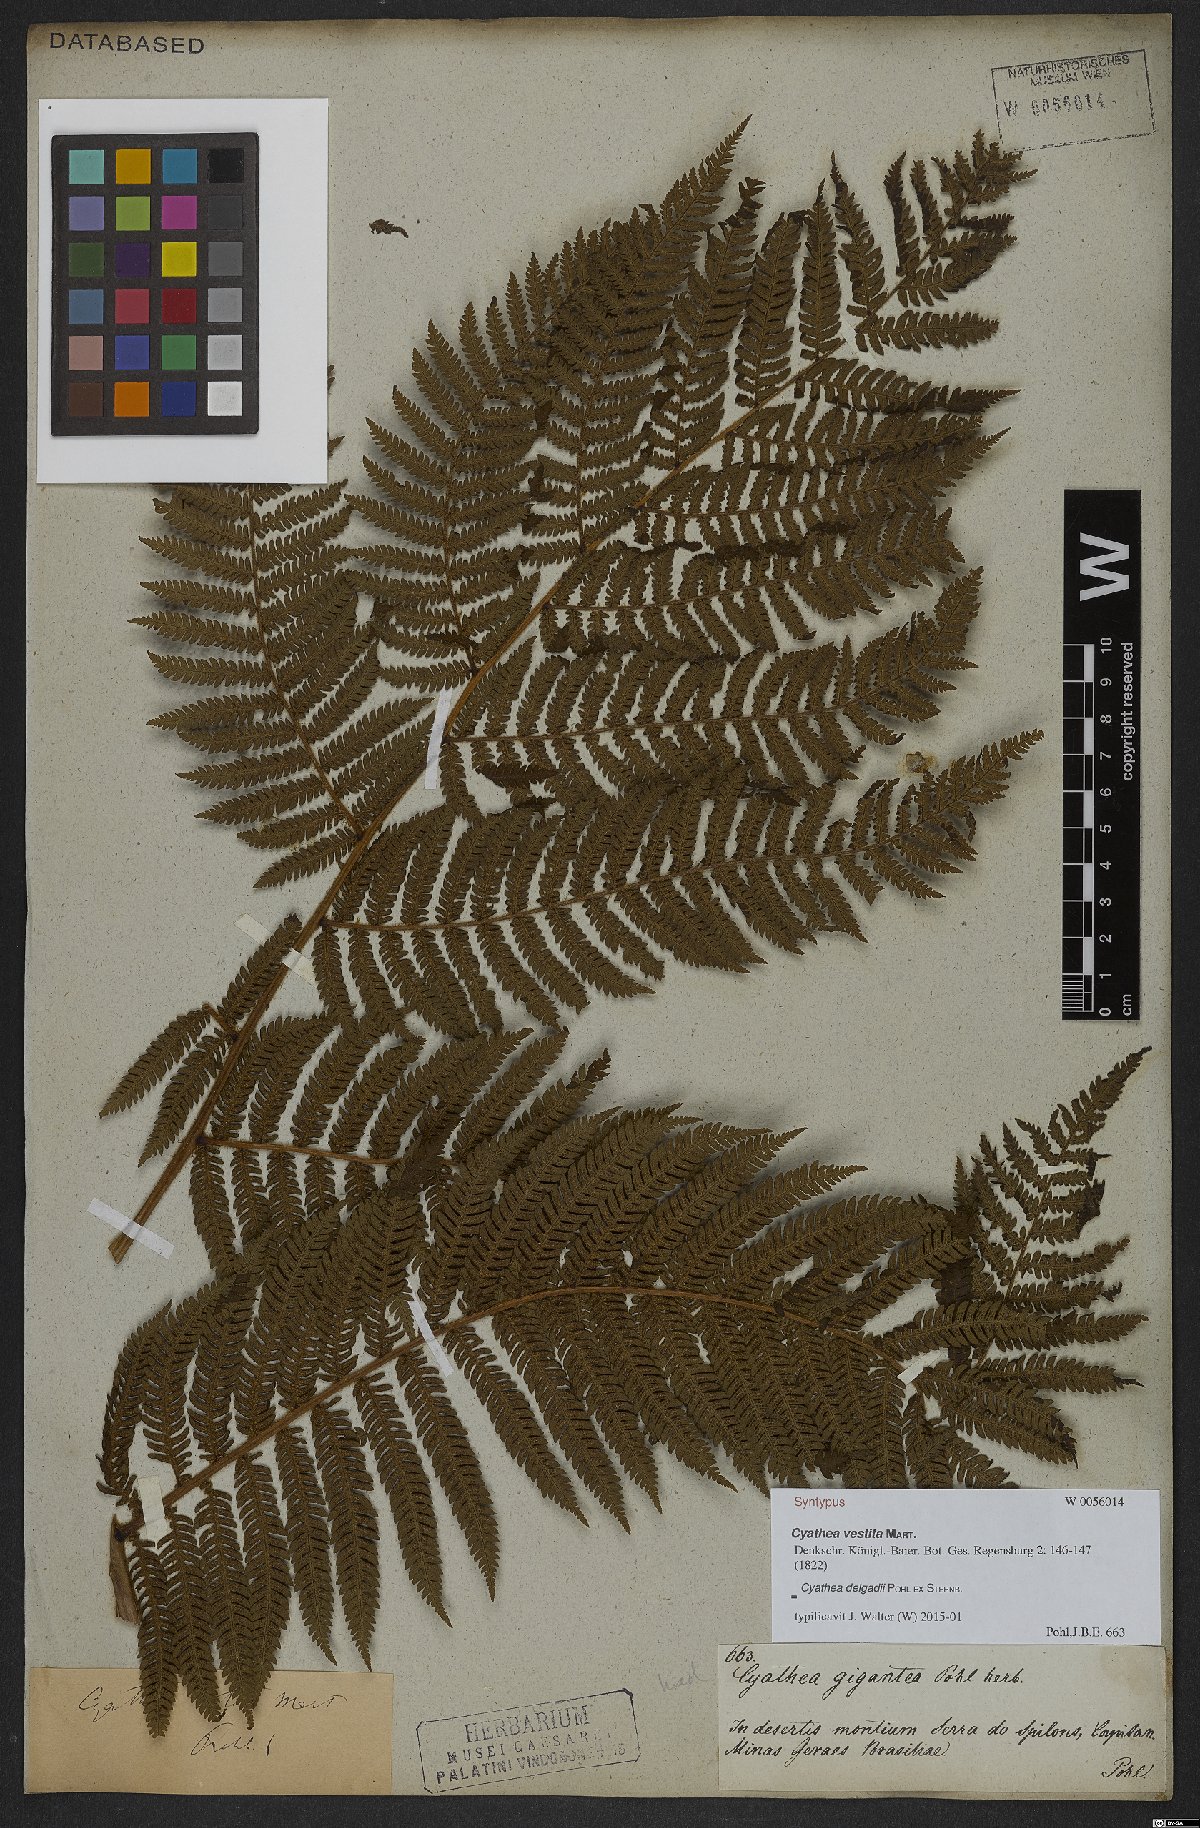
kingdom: Plantae
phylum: Tracheophyta
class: Polypodiopsida
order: Cyatheales
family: Cyatheaceae
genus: Cyathea
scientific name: Cyathea delgadii
